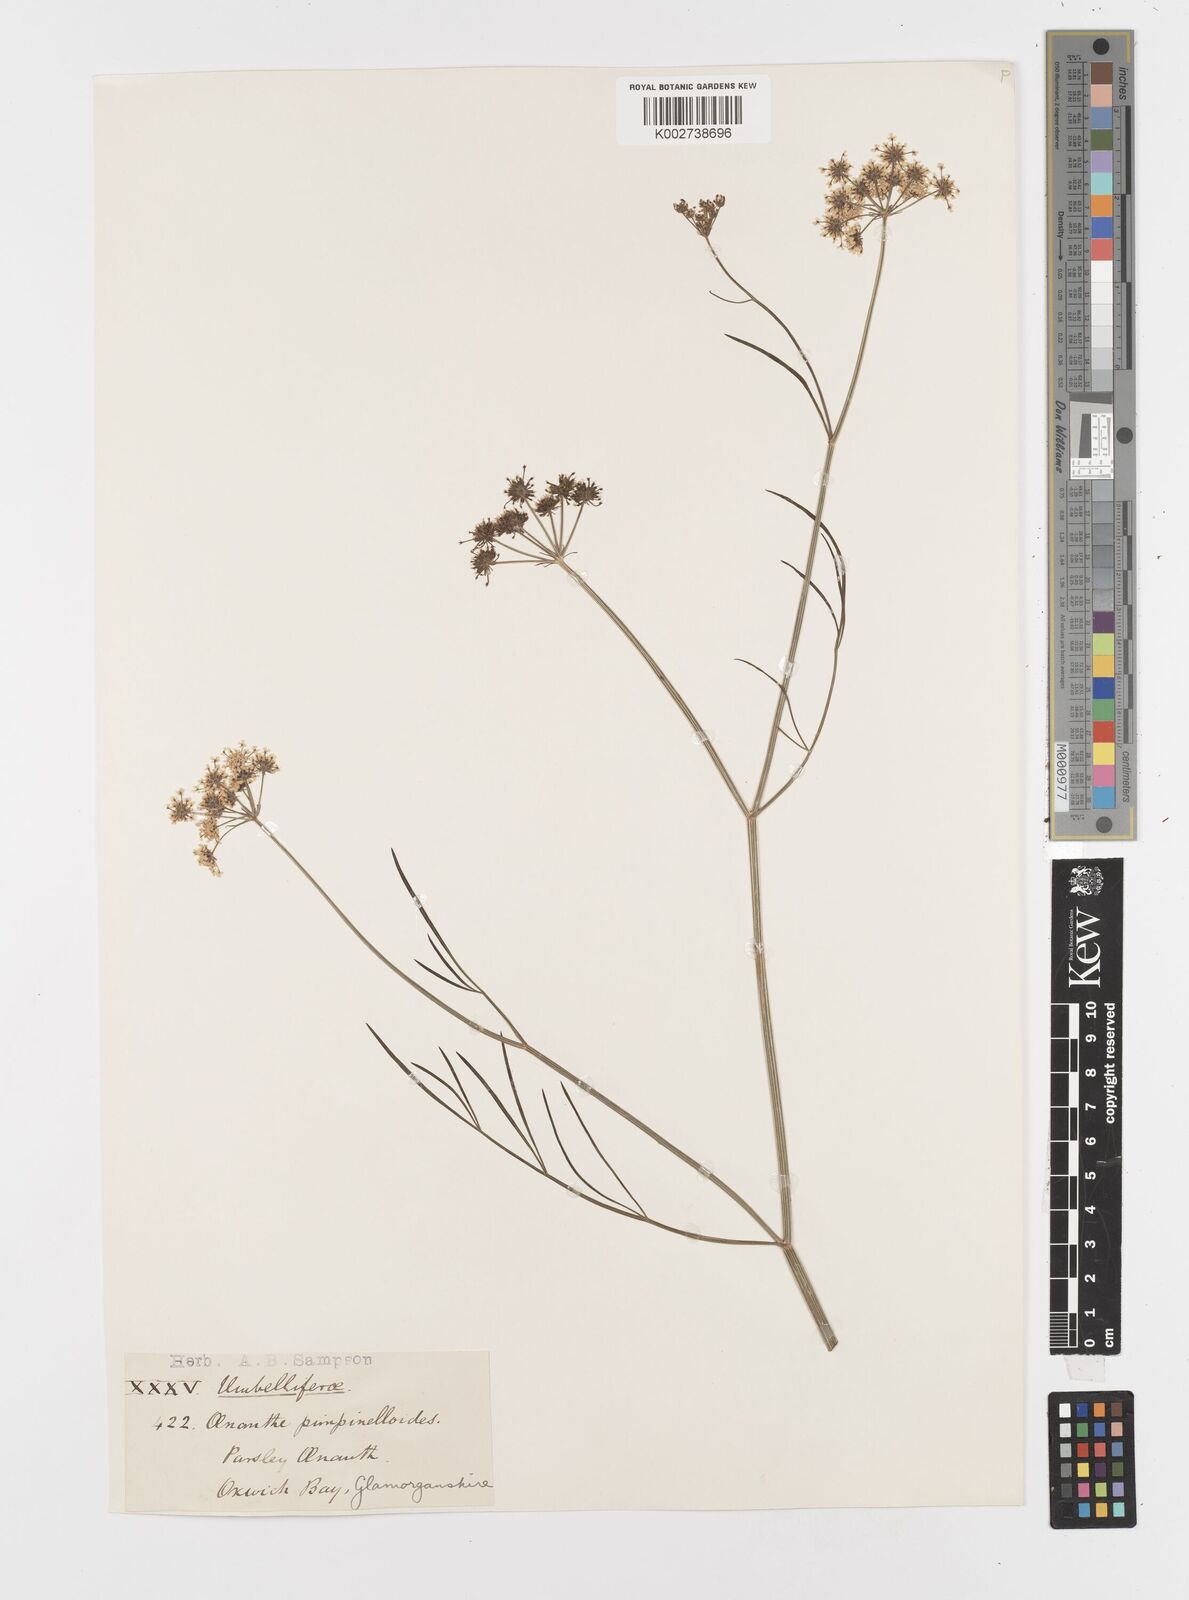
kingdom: Plantae
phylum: Tracheophyta
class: Magnoliopsida
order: Apiales
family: Apiaceae
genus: Oenanthe
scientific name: Oenanthe pimpinelloides
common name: Corky-fruited water-dropwort
